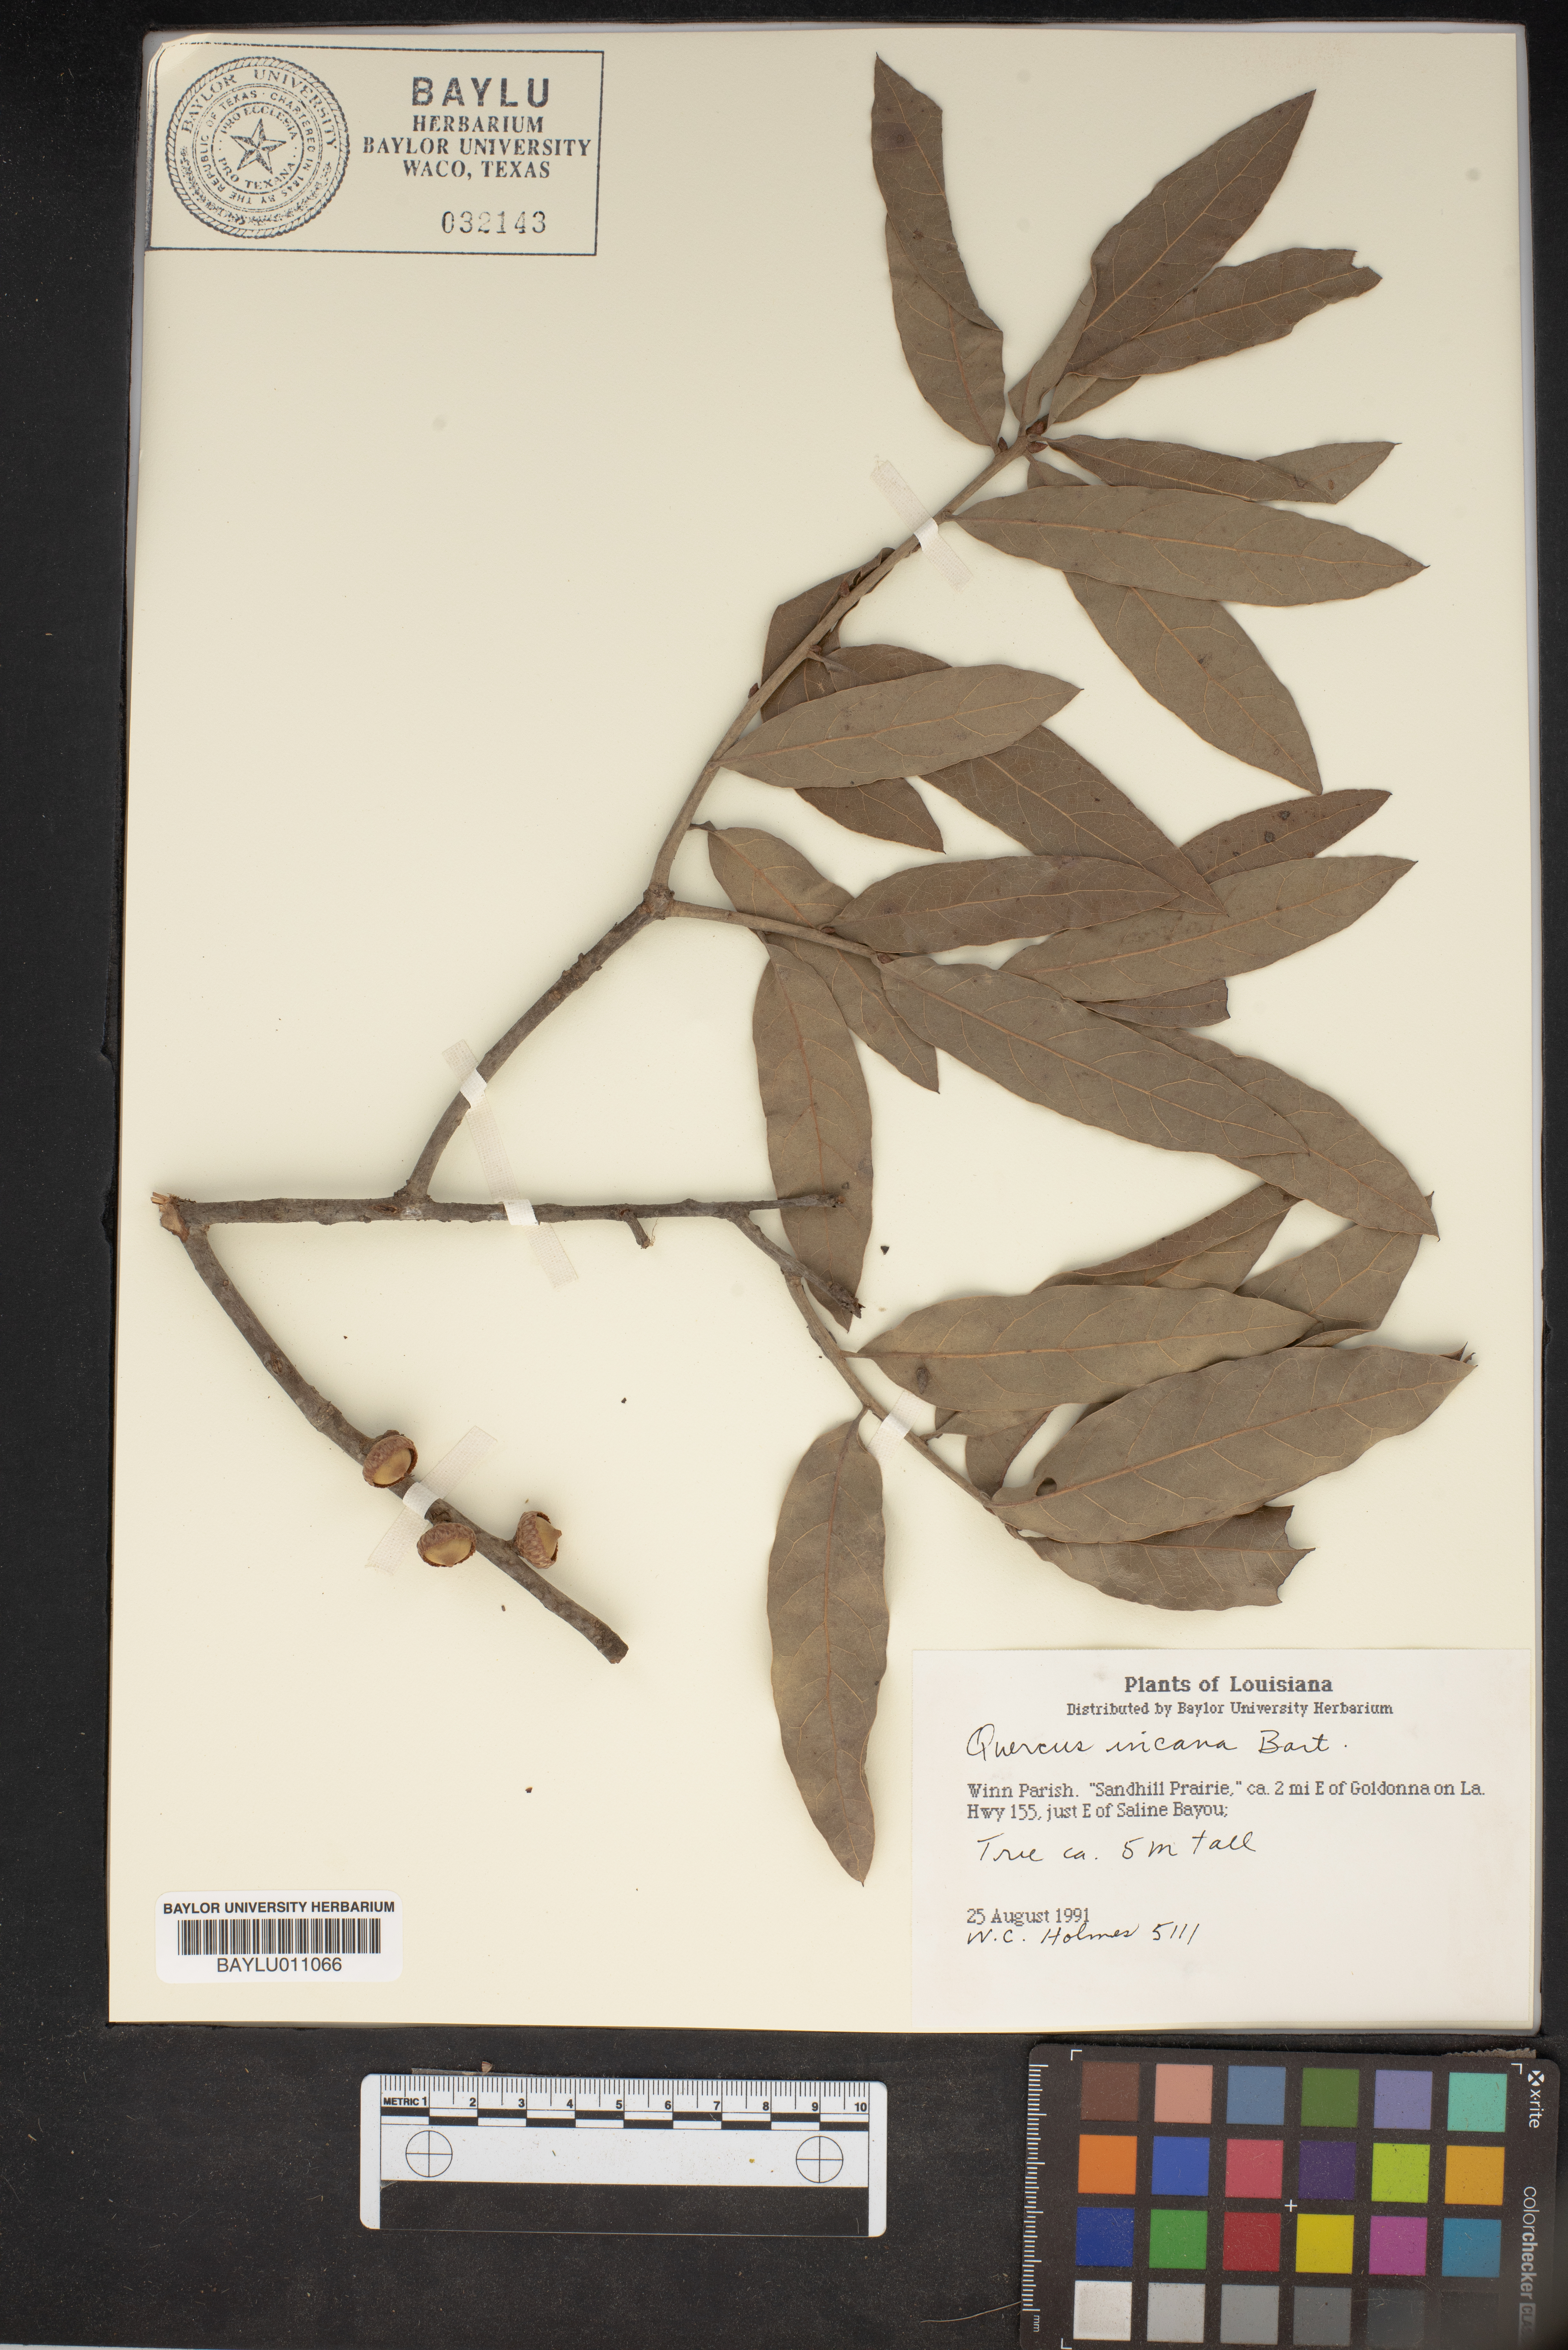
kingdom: Plantae
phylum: Tracheophyta
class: Magnoliopsida
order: Fagales
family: Fagaceae
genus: Quercus
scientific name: Quercus incana
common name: Bluejack oak
